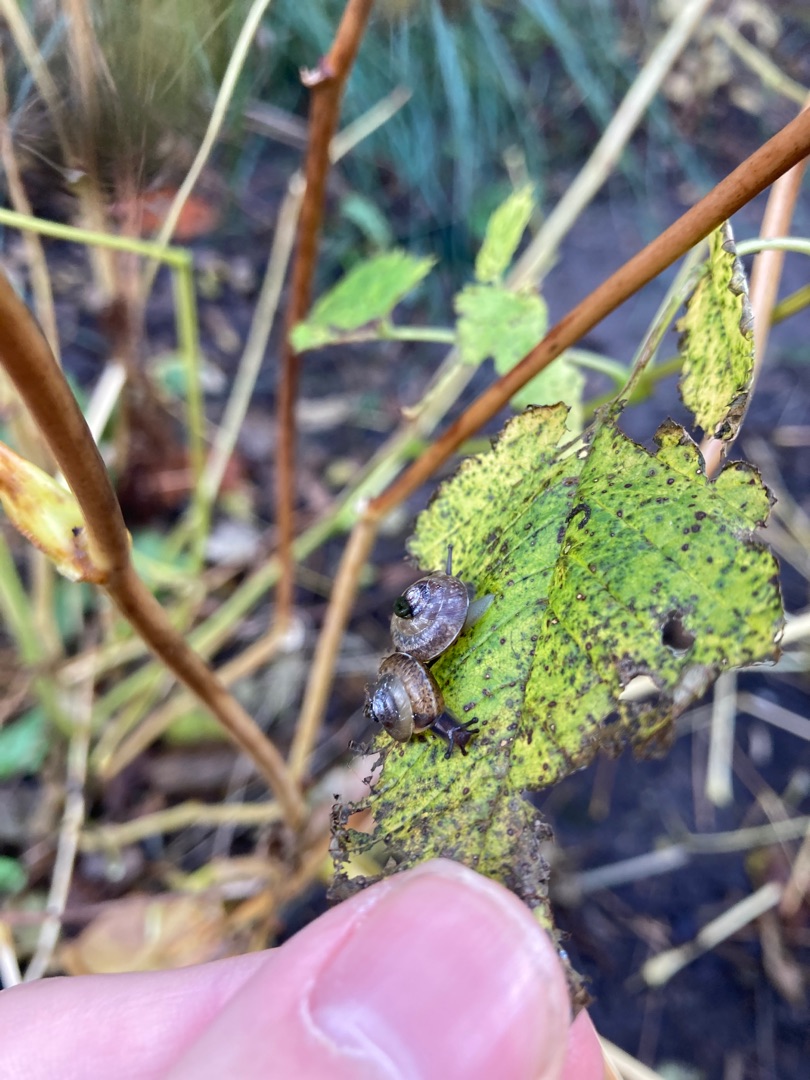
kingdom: Animalia
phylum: Mollusca
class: Gastropoda
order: Stylommatophora
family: Hygromiidae
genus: Hygromia
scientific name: Hygromia cinctella
